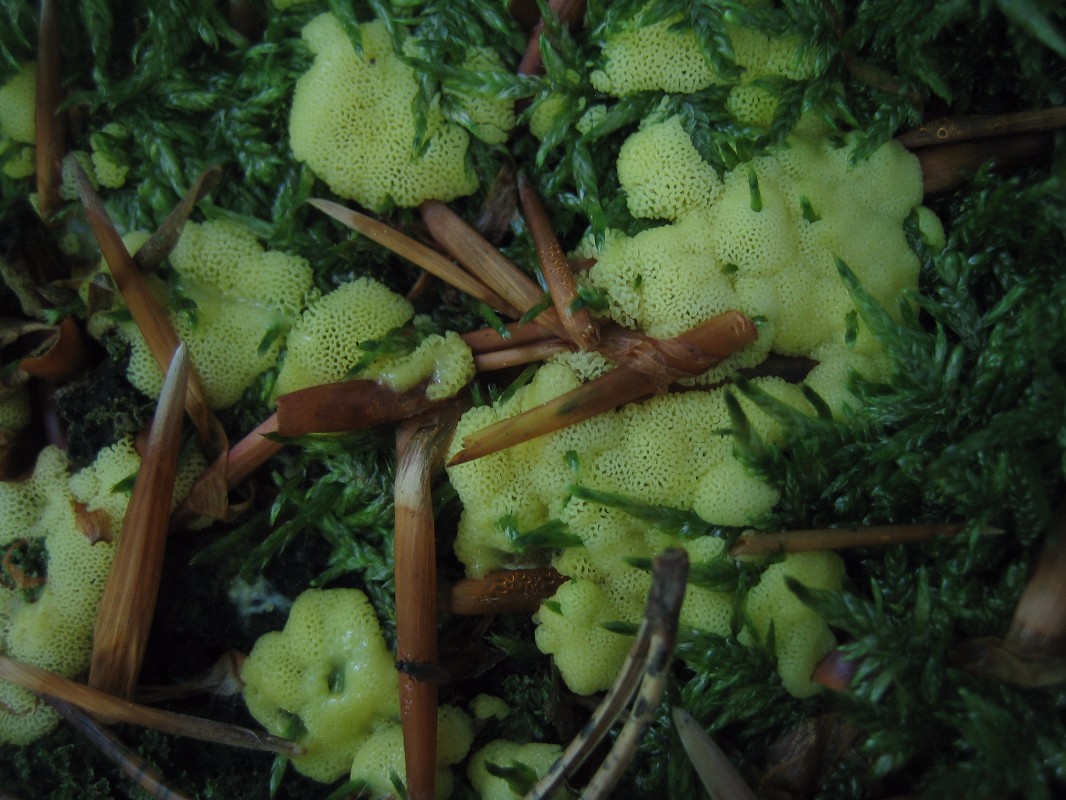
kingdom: Protozoa
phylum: Mycetozoa
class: Protosteliomycetes
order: Ceratiomyxales
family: Ceratiomyxaceae
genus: Ceratiomyxa
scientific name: Ceratiomyxa fruticulosa
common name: Honeycomb coral slime mold
